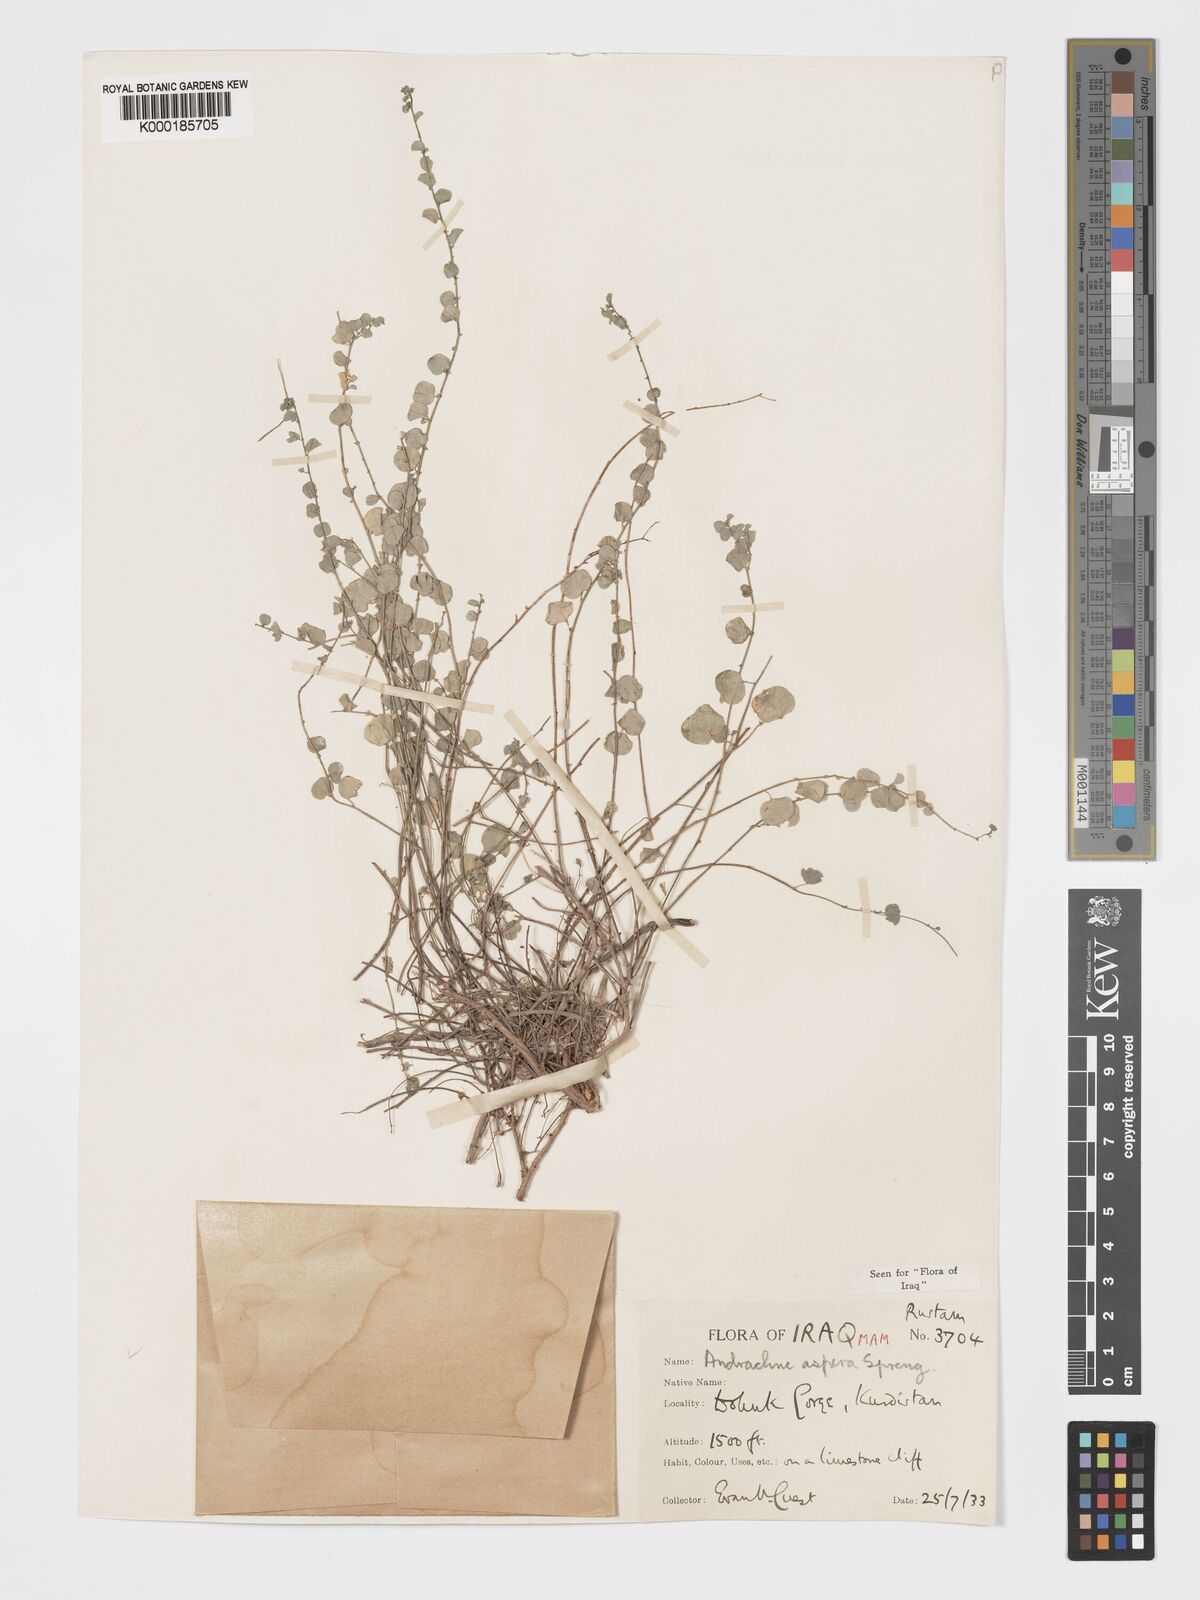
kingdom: Plantae
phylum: Tracheophyta
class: Magnoliopsida
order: Malpighiales
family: Phyllanthaceae
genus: Andrachne
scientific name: Andrachne aspera
